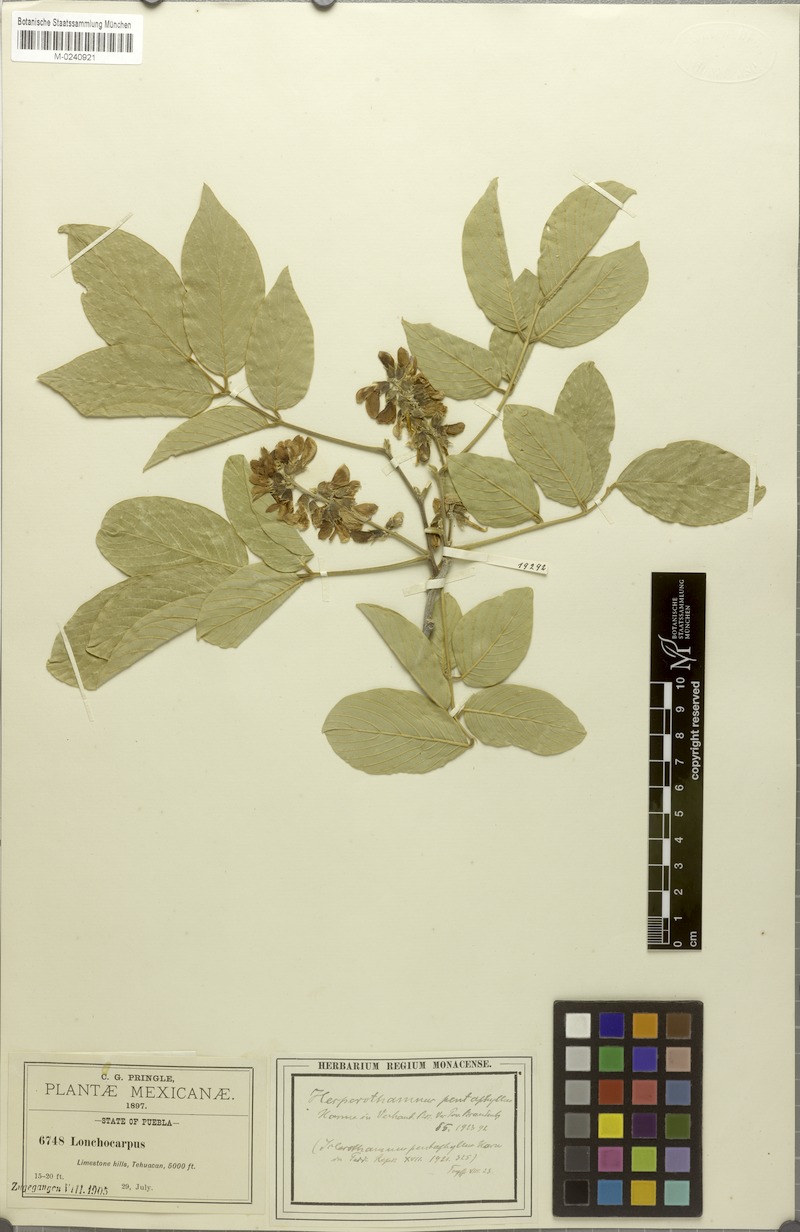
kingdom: Plantae
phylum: Tracheophyta
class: Magnoliopsida
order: Fabales
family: Fabaceae
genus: Hesperothamnus
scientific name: Hesperothamnus pentaphyllus
